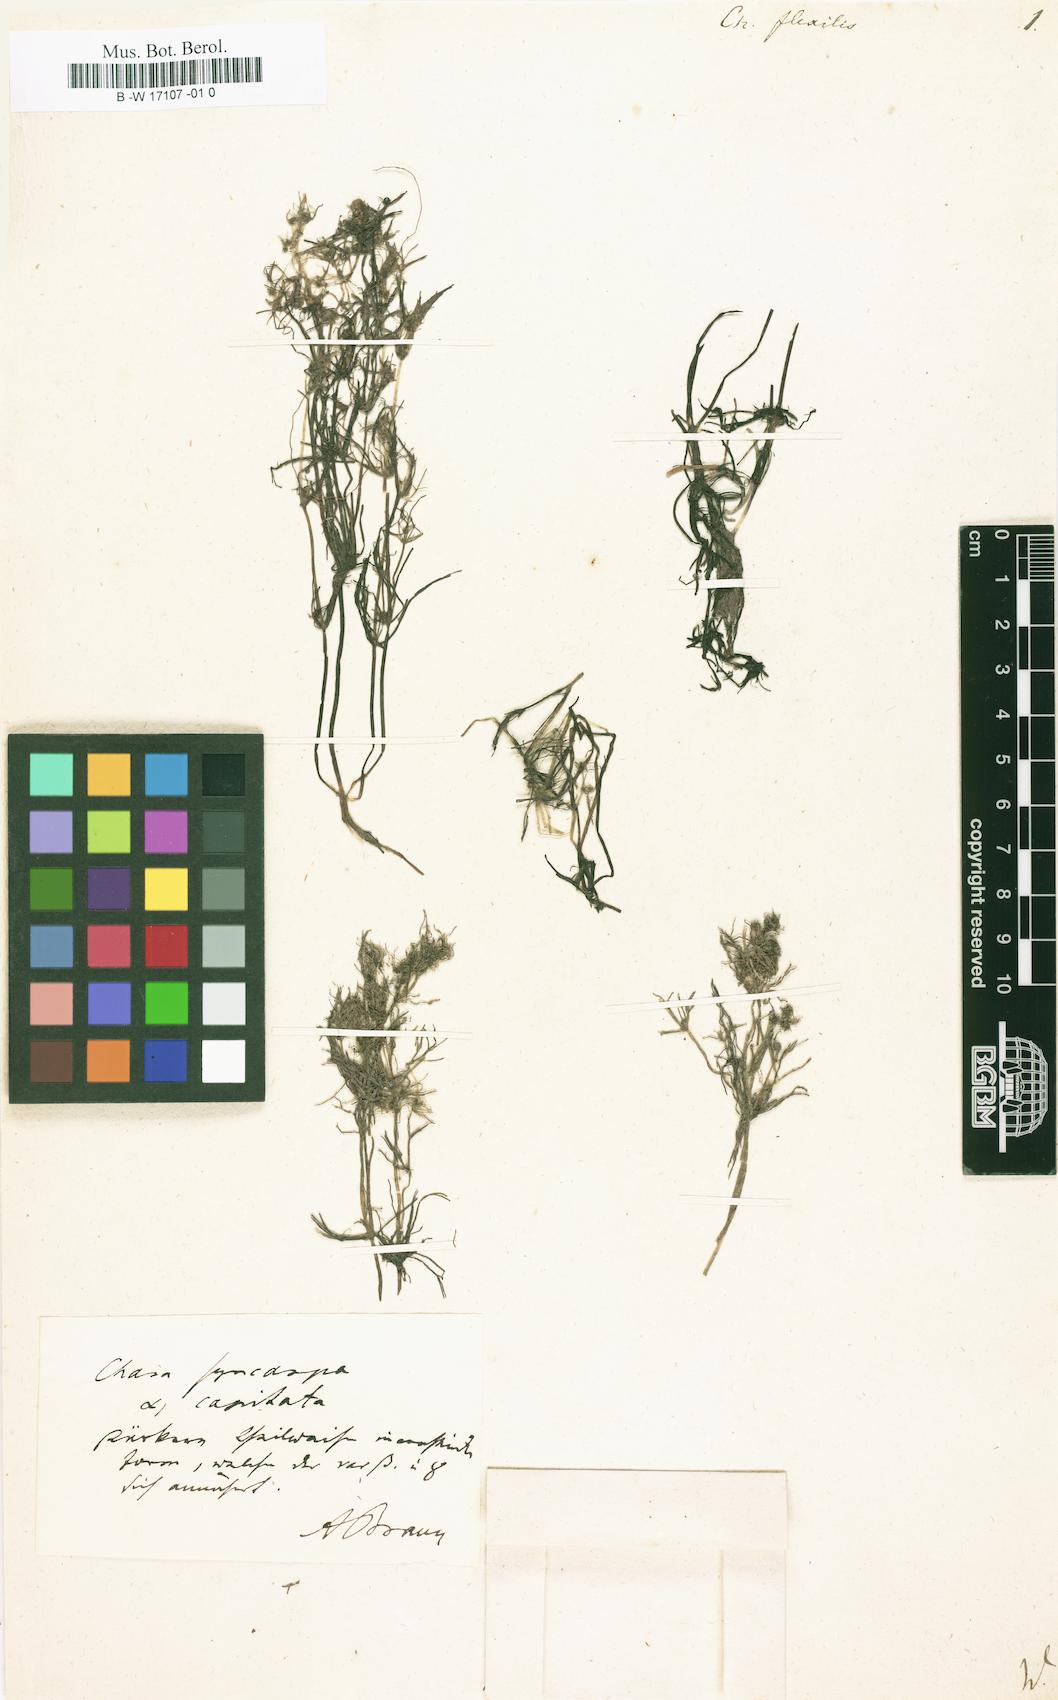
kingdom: Plantae
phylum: Charophyta
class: Charophyceae
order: Charales
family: Characeae
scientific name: Characeae
